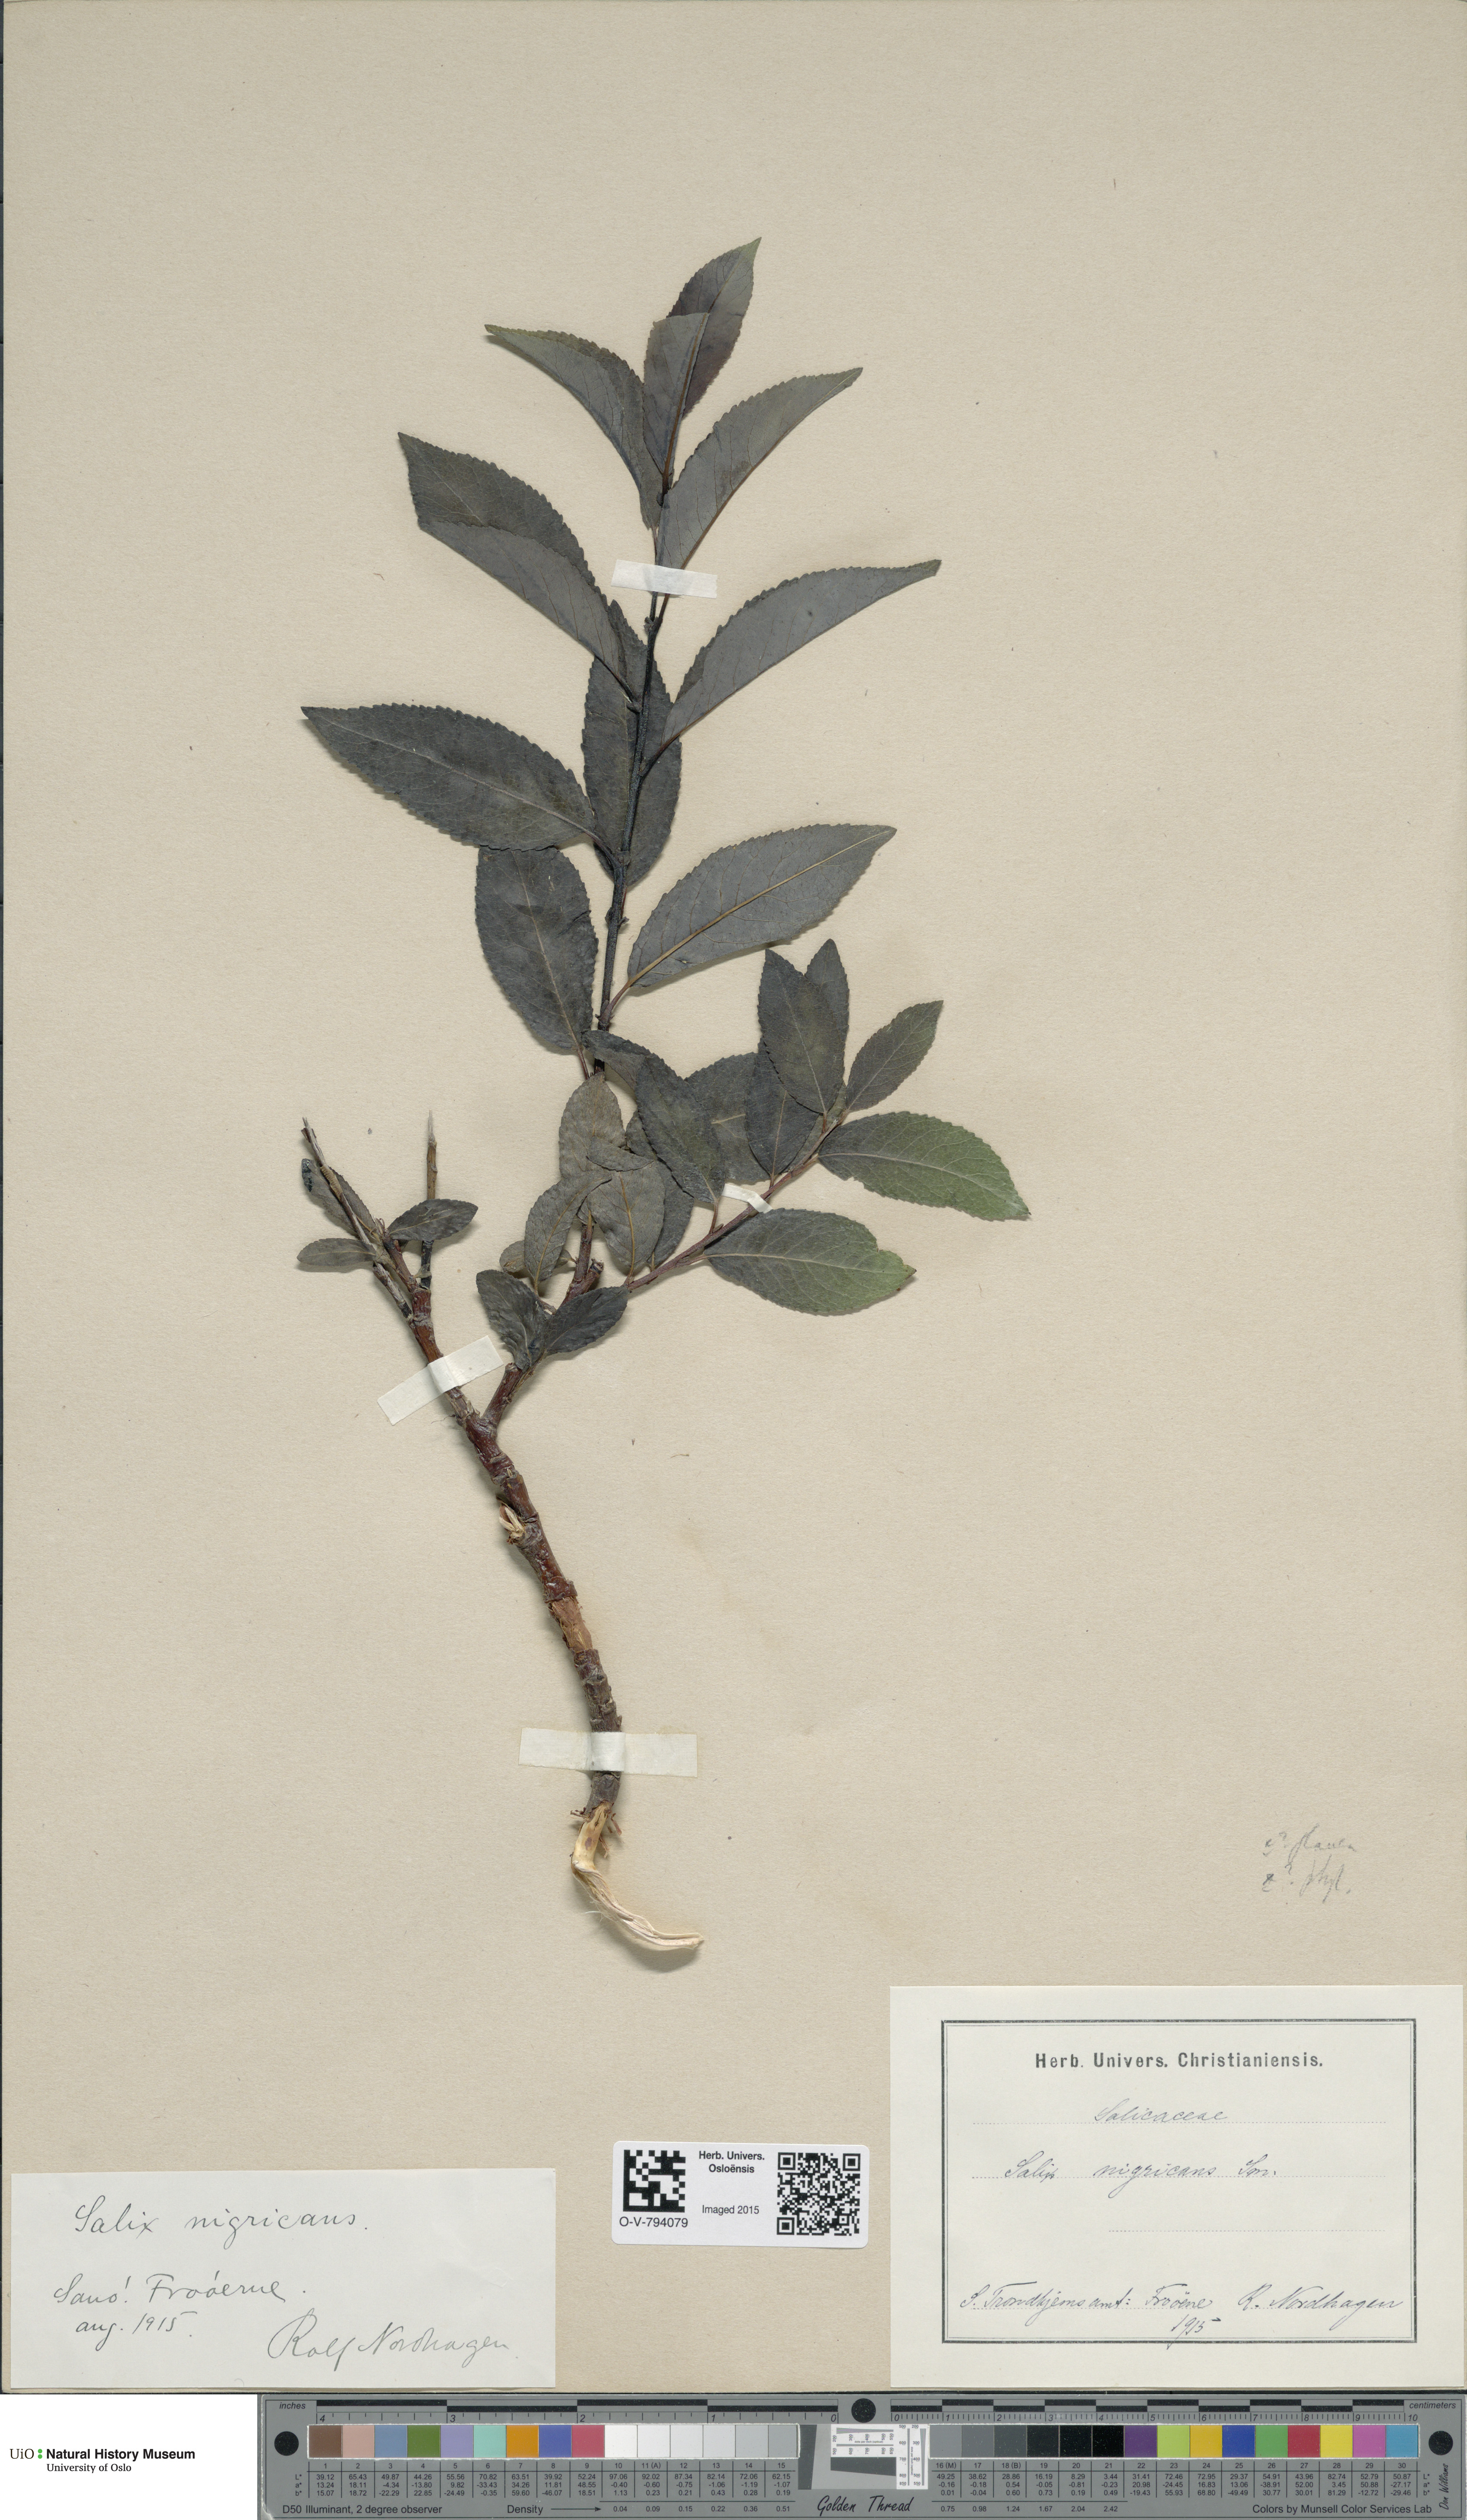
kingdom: Plantae
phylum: Tracheophyta
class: Magnoliopsida
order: Malpighiales
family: Salicaceae
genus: Salix
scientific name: Salix myrsinifolia
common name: Dark-leaved willow
